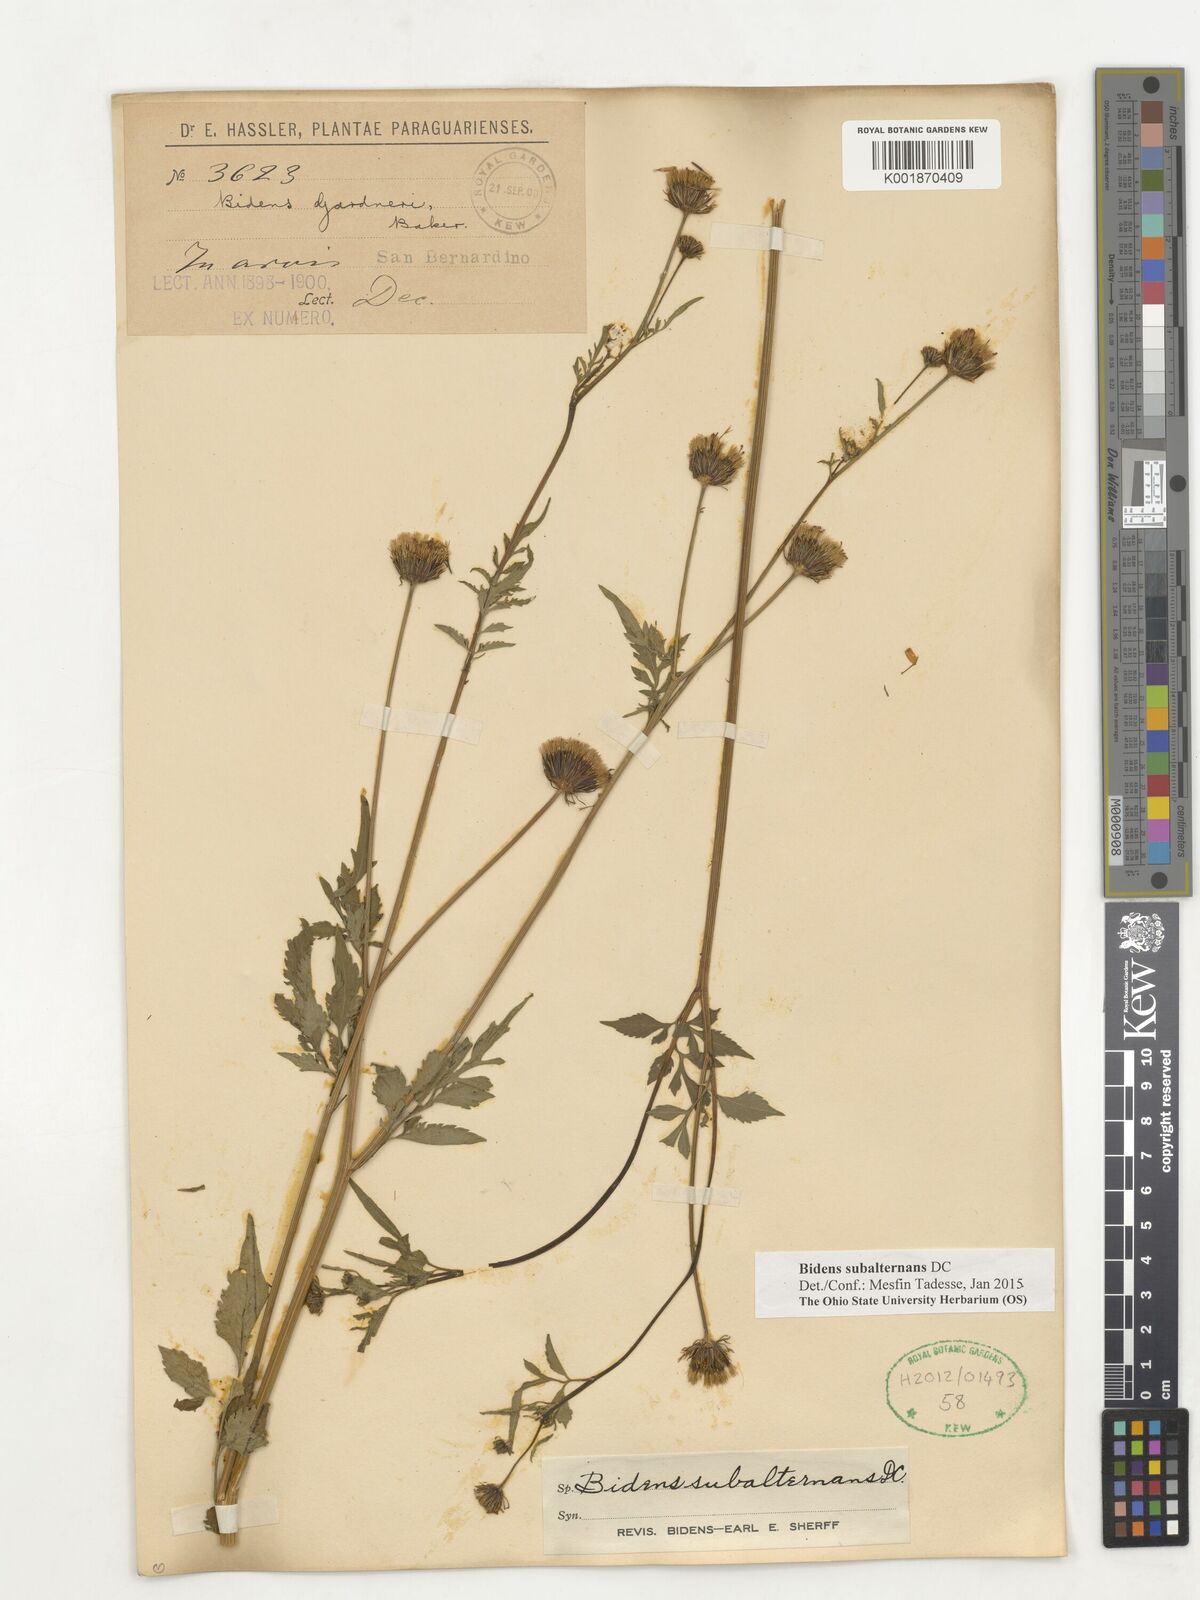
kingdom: Plantae
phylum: Tracheophyta
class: Magnoliopsida
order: Asterales
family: Asteraceae
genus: Bidens
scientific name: Bidens subalternans
